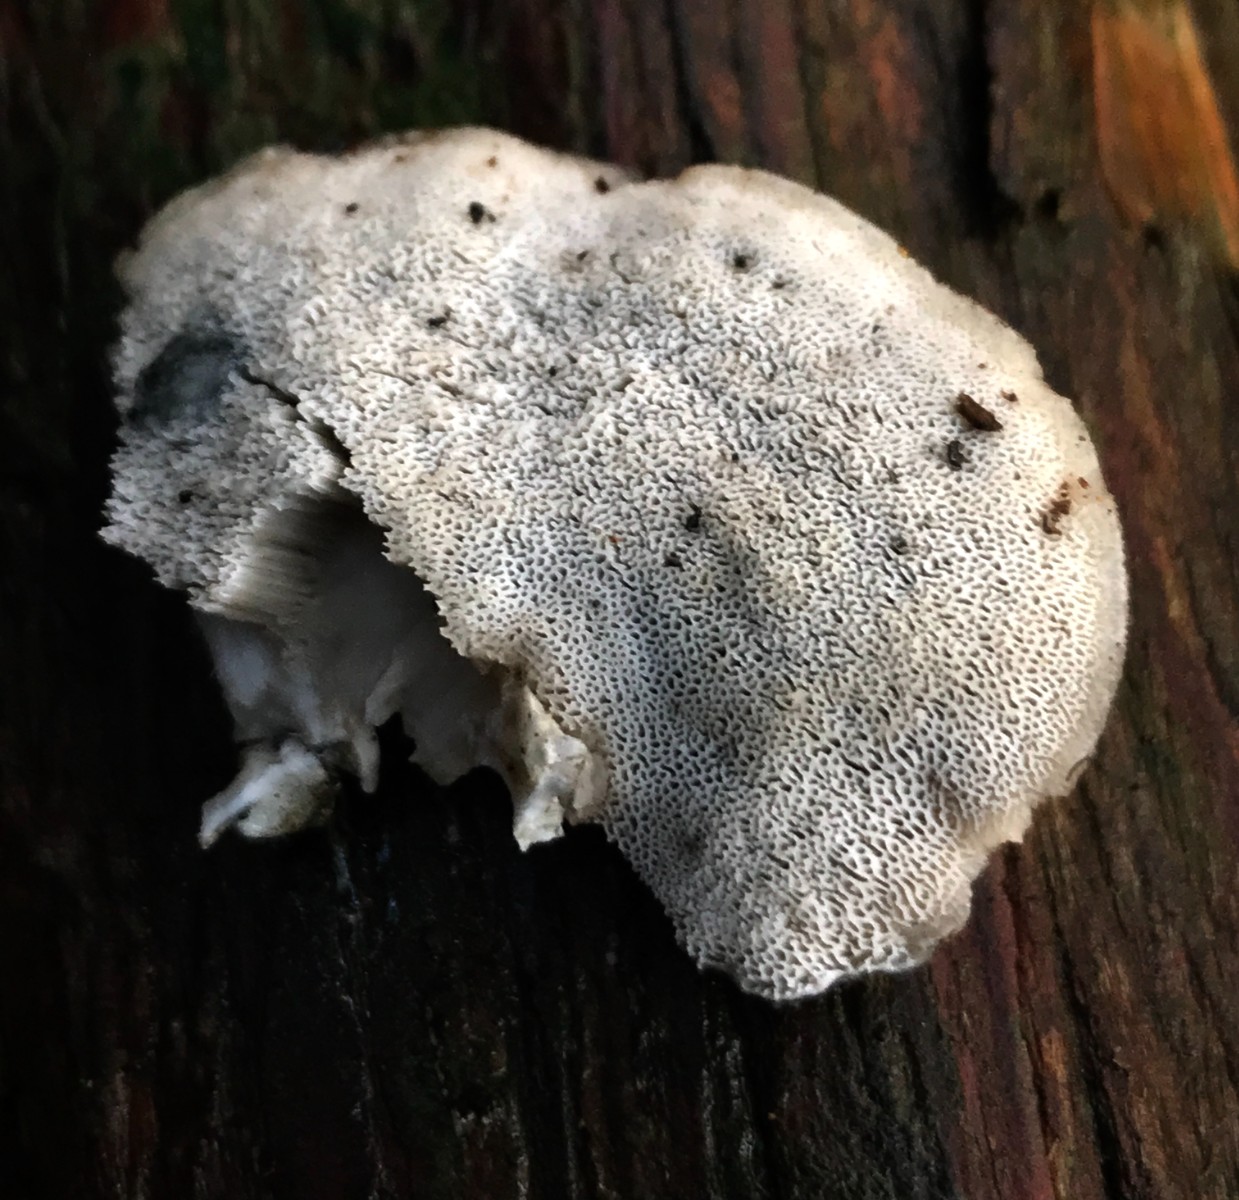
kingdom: Fungi
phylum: Basidiomycota
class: Agaricomycetes
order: Polyporales
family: Polyporaceae
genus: Cyanosporus
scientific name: Cyanosporus alni
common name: blegblå kødporesvamp
